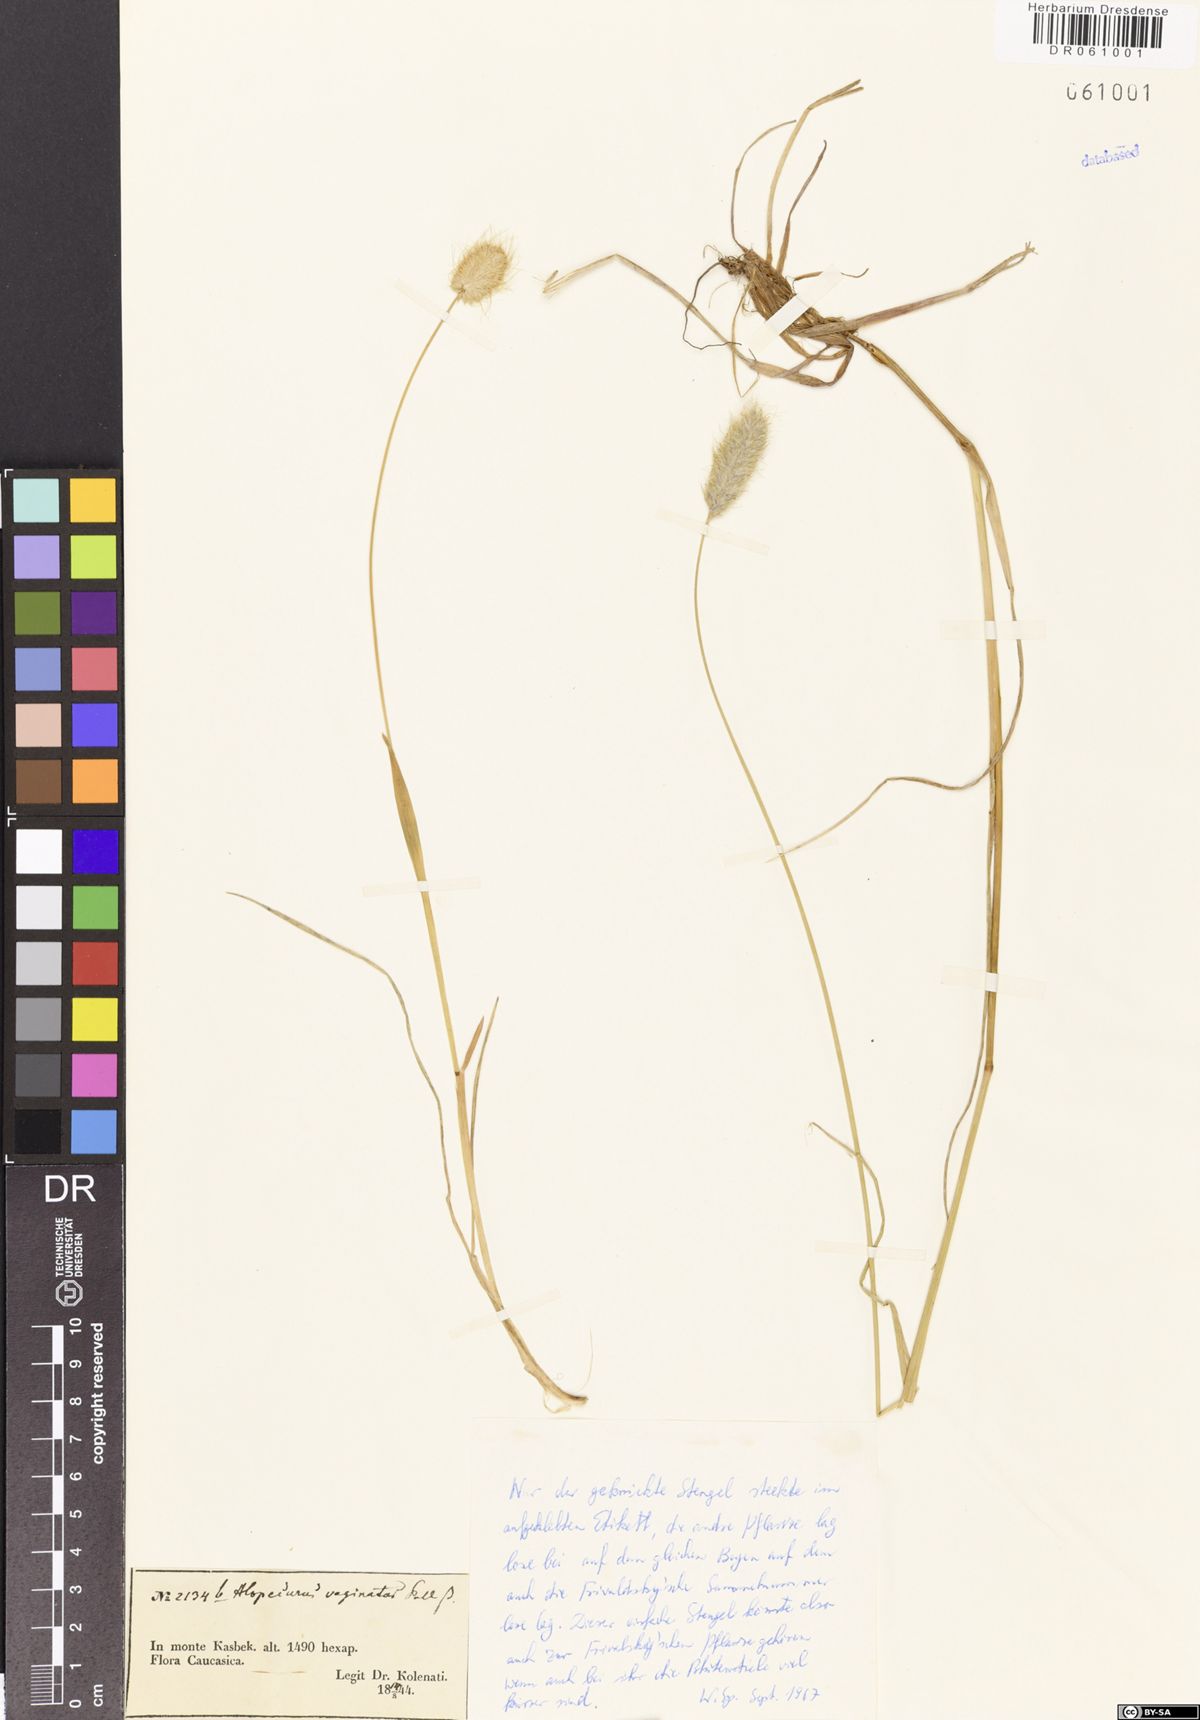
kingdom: Plantae
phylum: Tracheophyta
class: Liliopsida
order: Poales
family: Poaceae
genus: Alopecurus
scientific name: Alopecurus vaginatus
